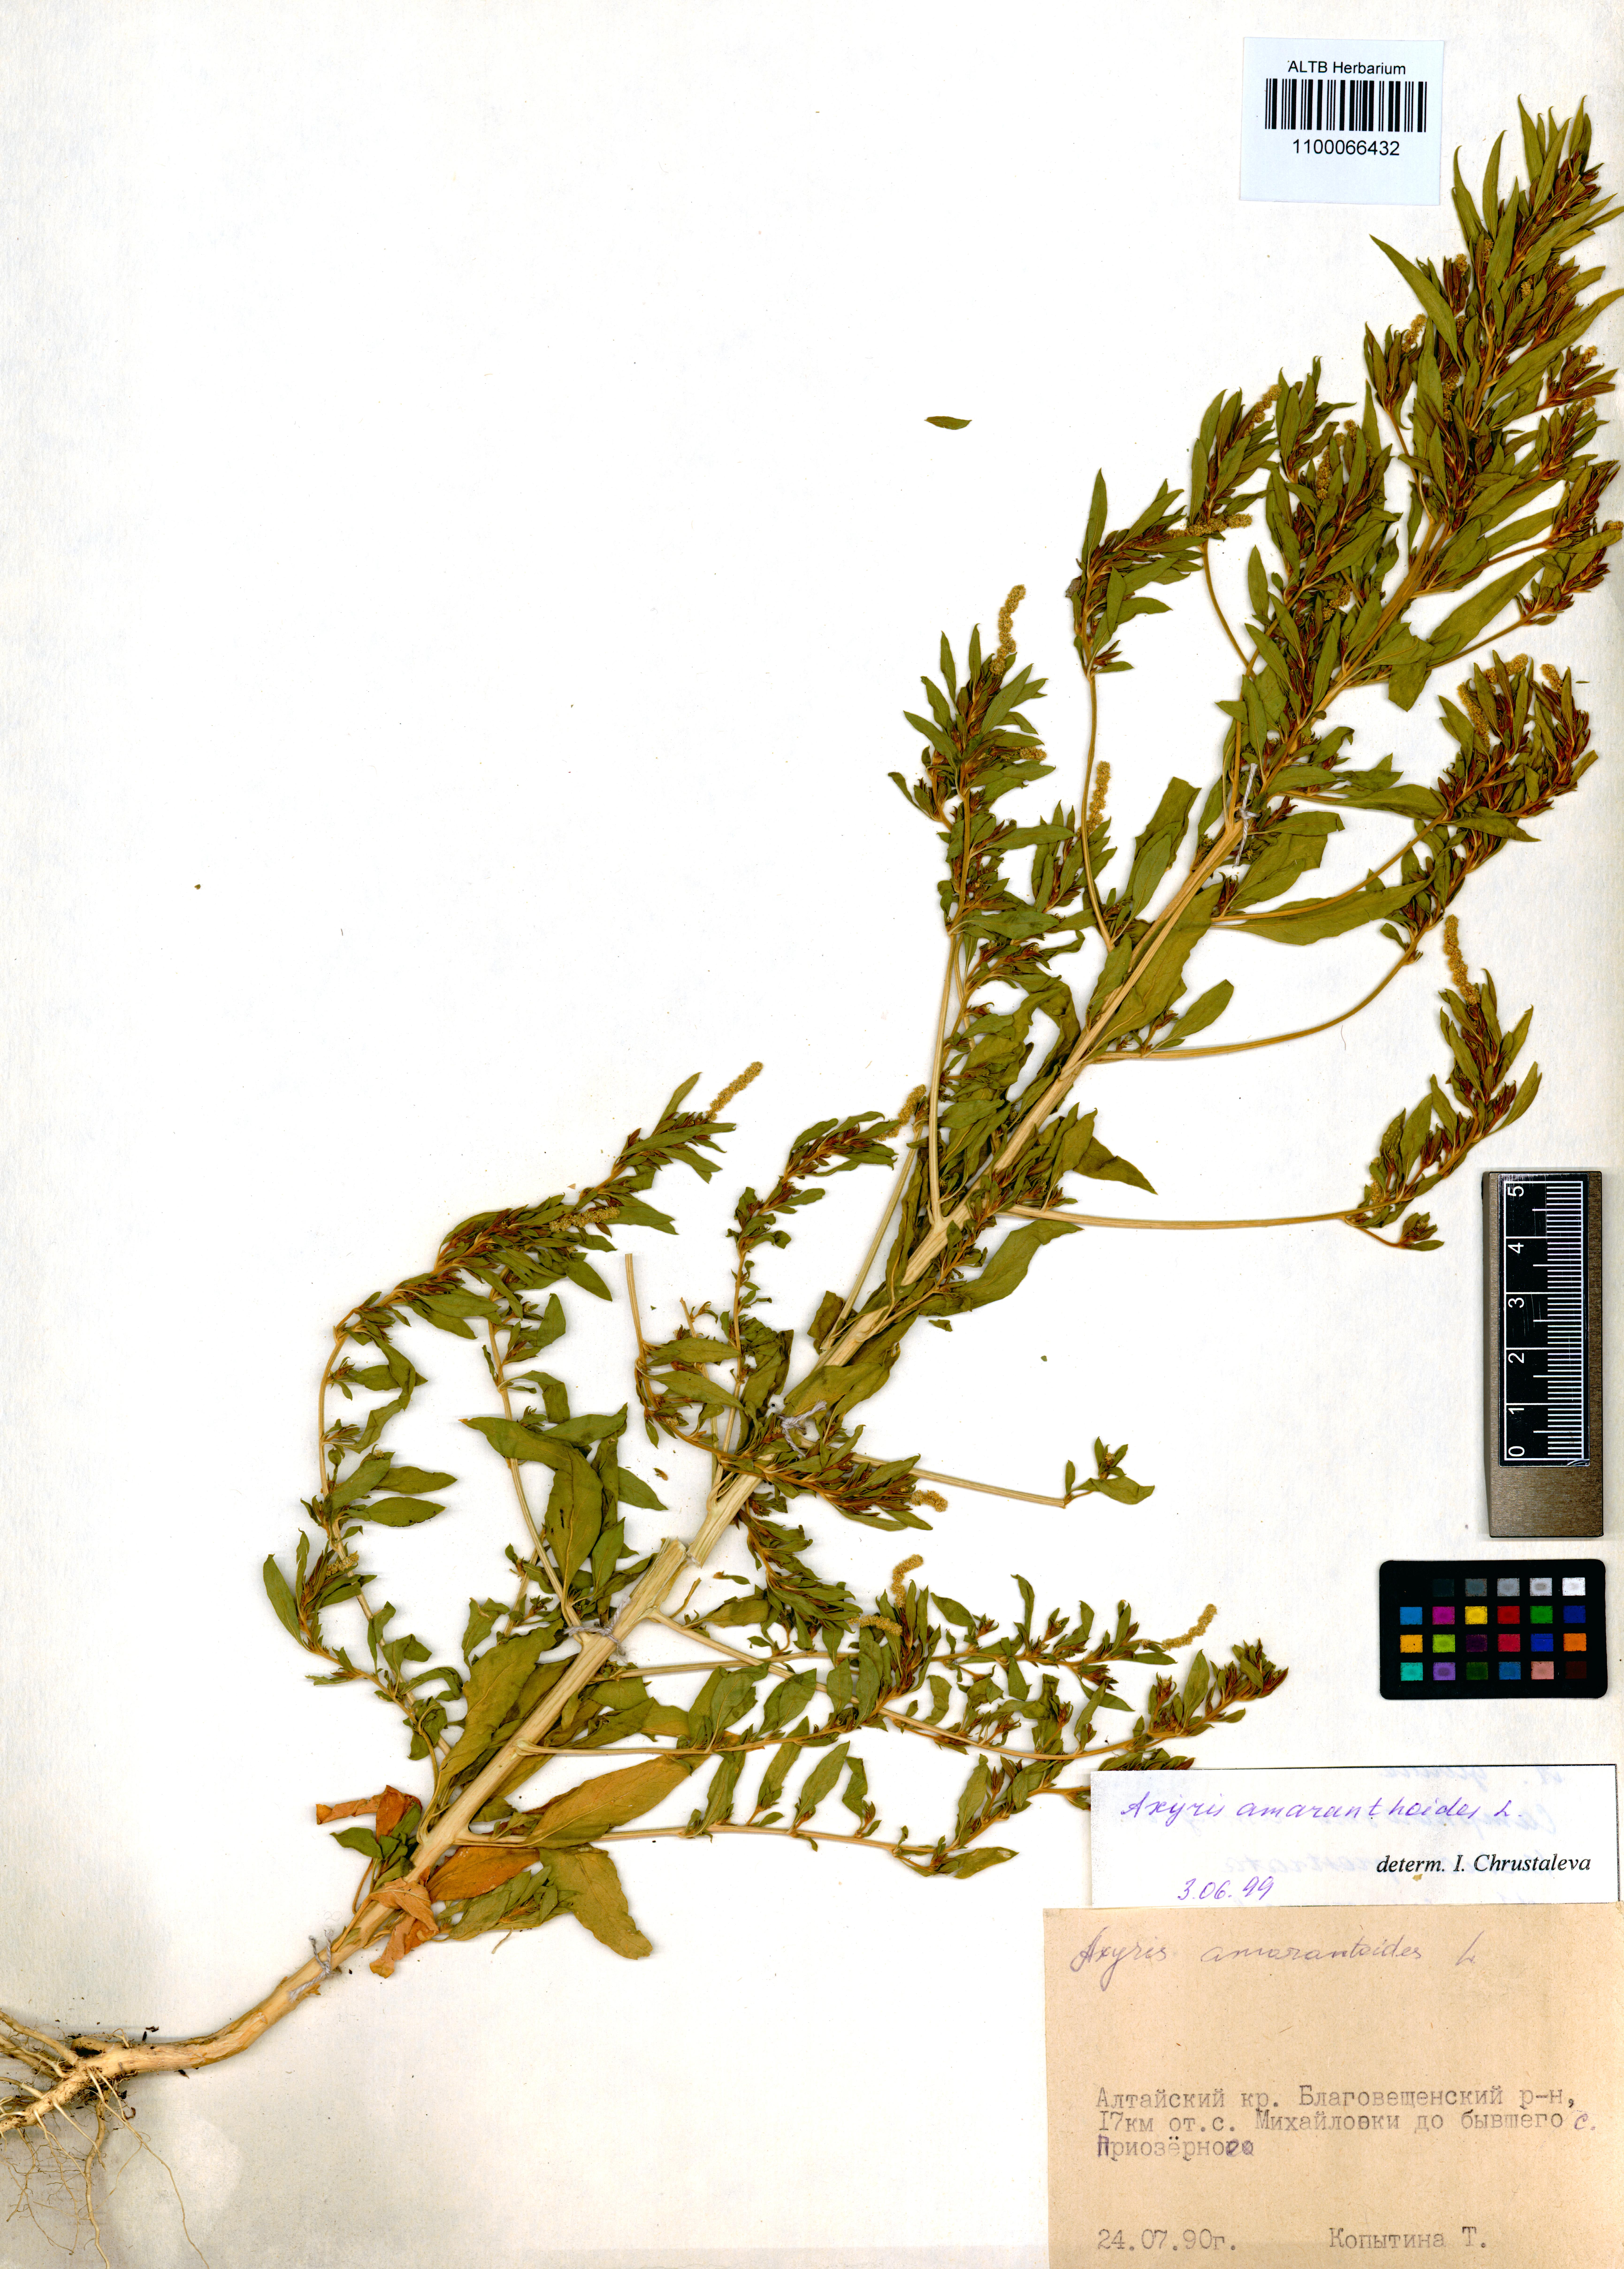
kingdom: Plantae
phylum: Tracheophyta
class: Magnoliopsida
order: Caryophyllales
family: Amaranthaceae
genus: Axyris
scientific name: Axyris amaranthoides
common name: Russian pigweed
